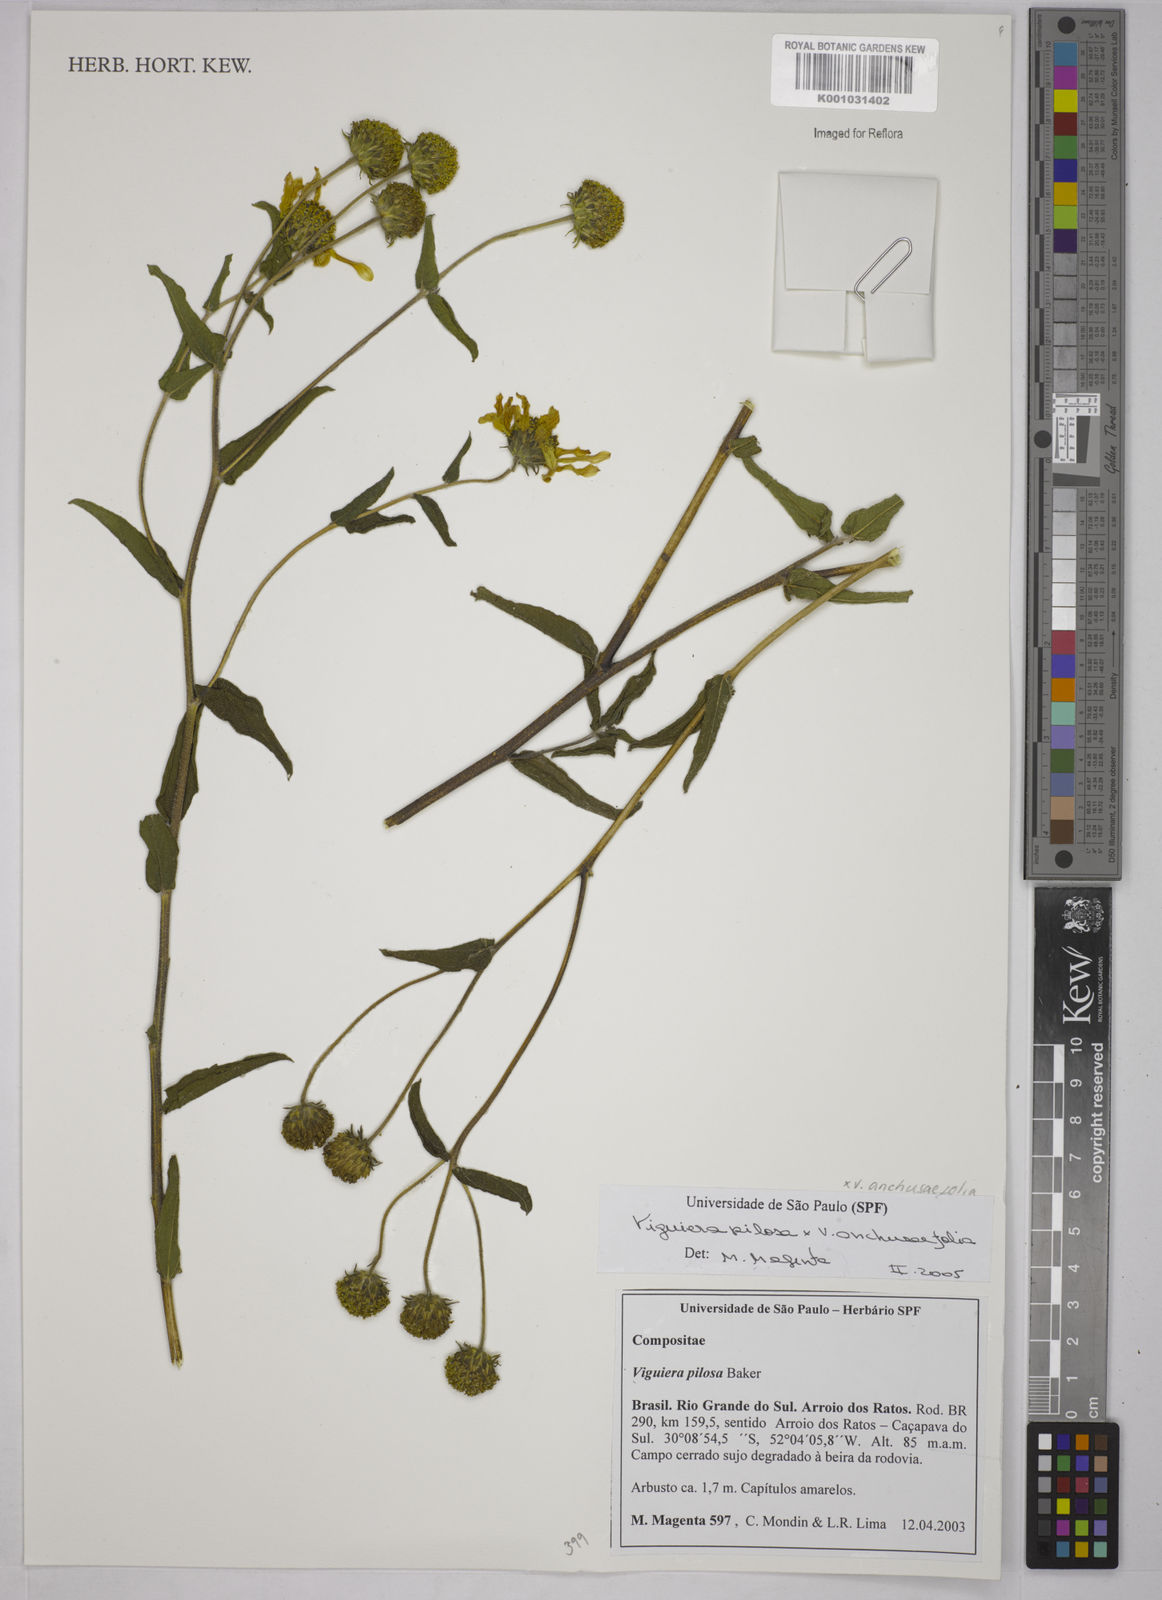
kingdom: Plantae
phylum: Tracheophyta
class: Magnoliopsida
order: Asterales
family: Asteraceae
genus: Aldama
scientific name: Aldama pilosa
